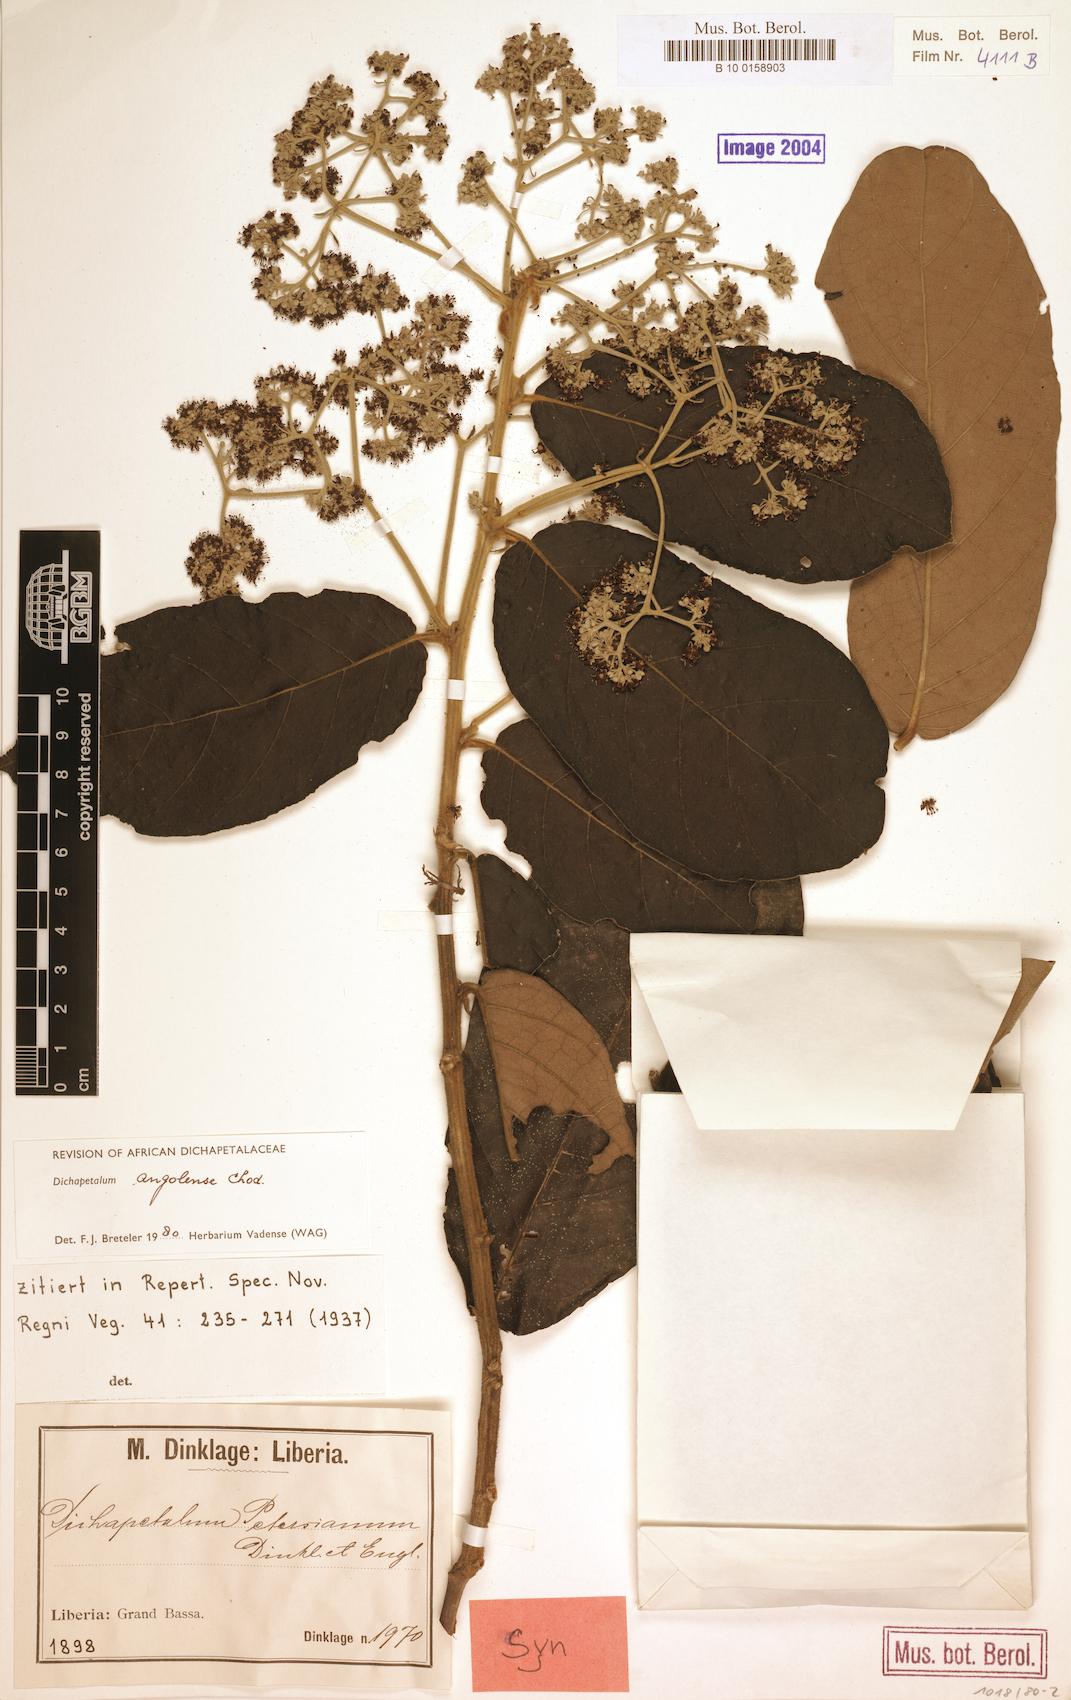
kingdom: Plantae
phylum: Tracheophyta
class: Magnoliopsida
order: Malpighiales
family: Dichapetalaceae
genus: Dichapetalum
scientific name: Dichapetalum angolense
